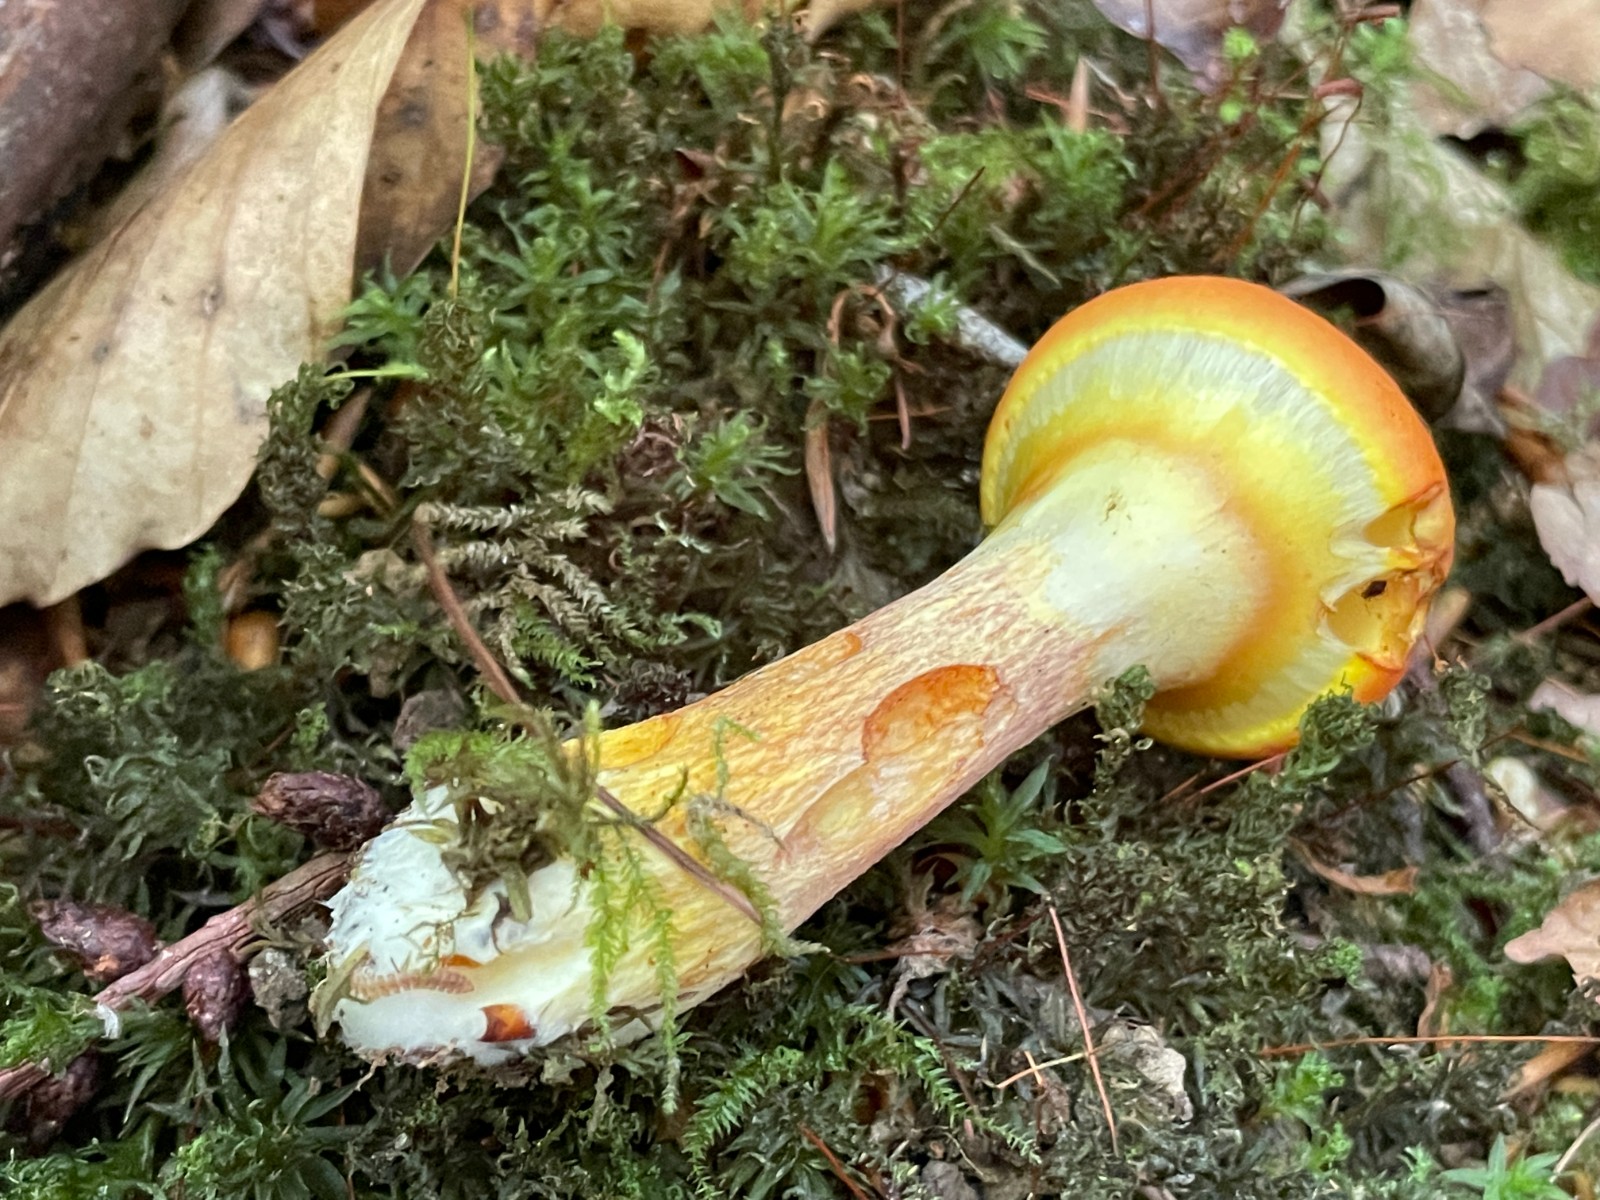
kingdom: Fungi
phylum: Basidiomycota
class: Agaricomycetes
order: Boletales
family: Suillaceae
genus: Suillus
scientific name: Suillus grevillei
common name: lærke-slimrørhat
